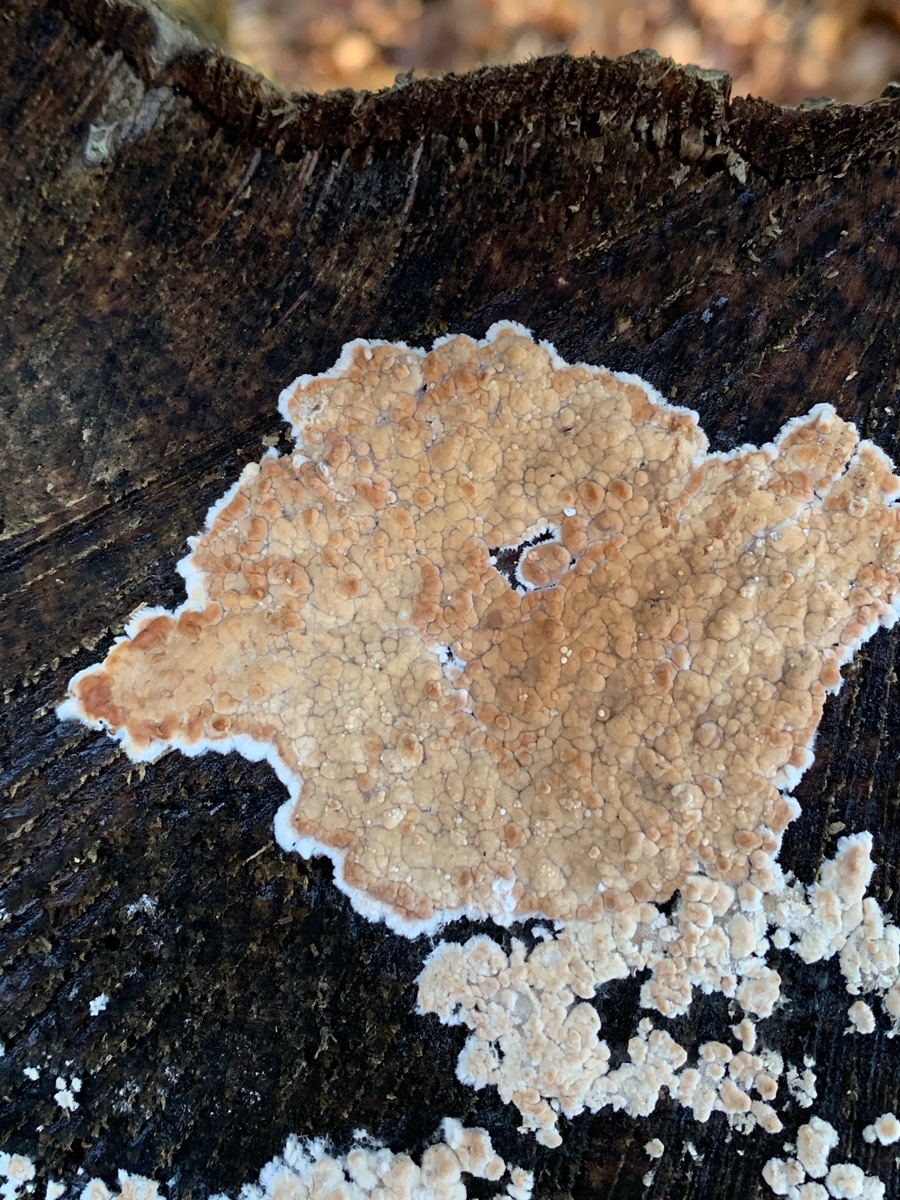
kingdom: Fungi
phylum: Basidiomycota
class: Agaricomycetes
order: Agaricales
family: Physalacriaceae
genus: Cylindrobasidium
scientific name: Cylindrobasidium evolvens
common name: sprækkehinde
